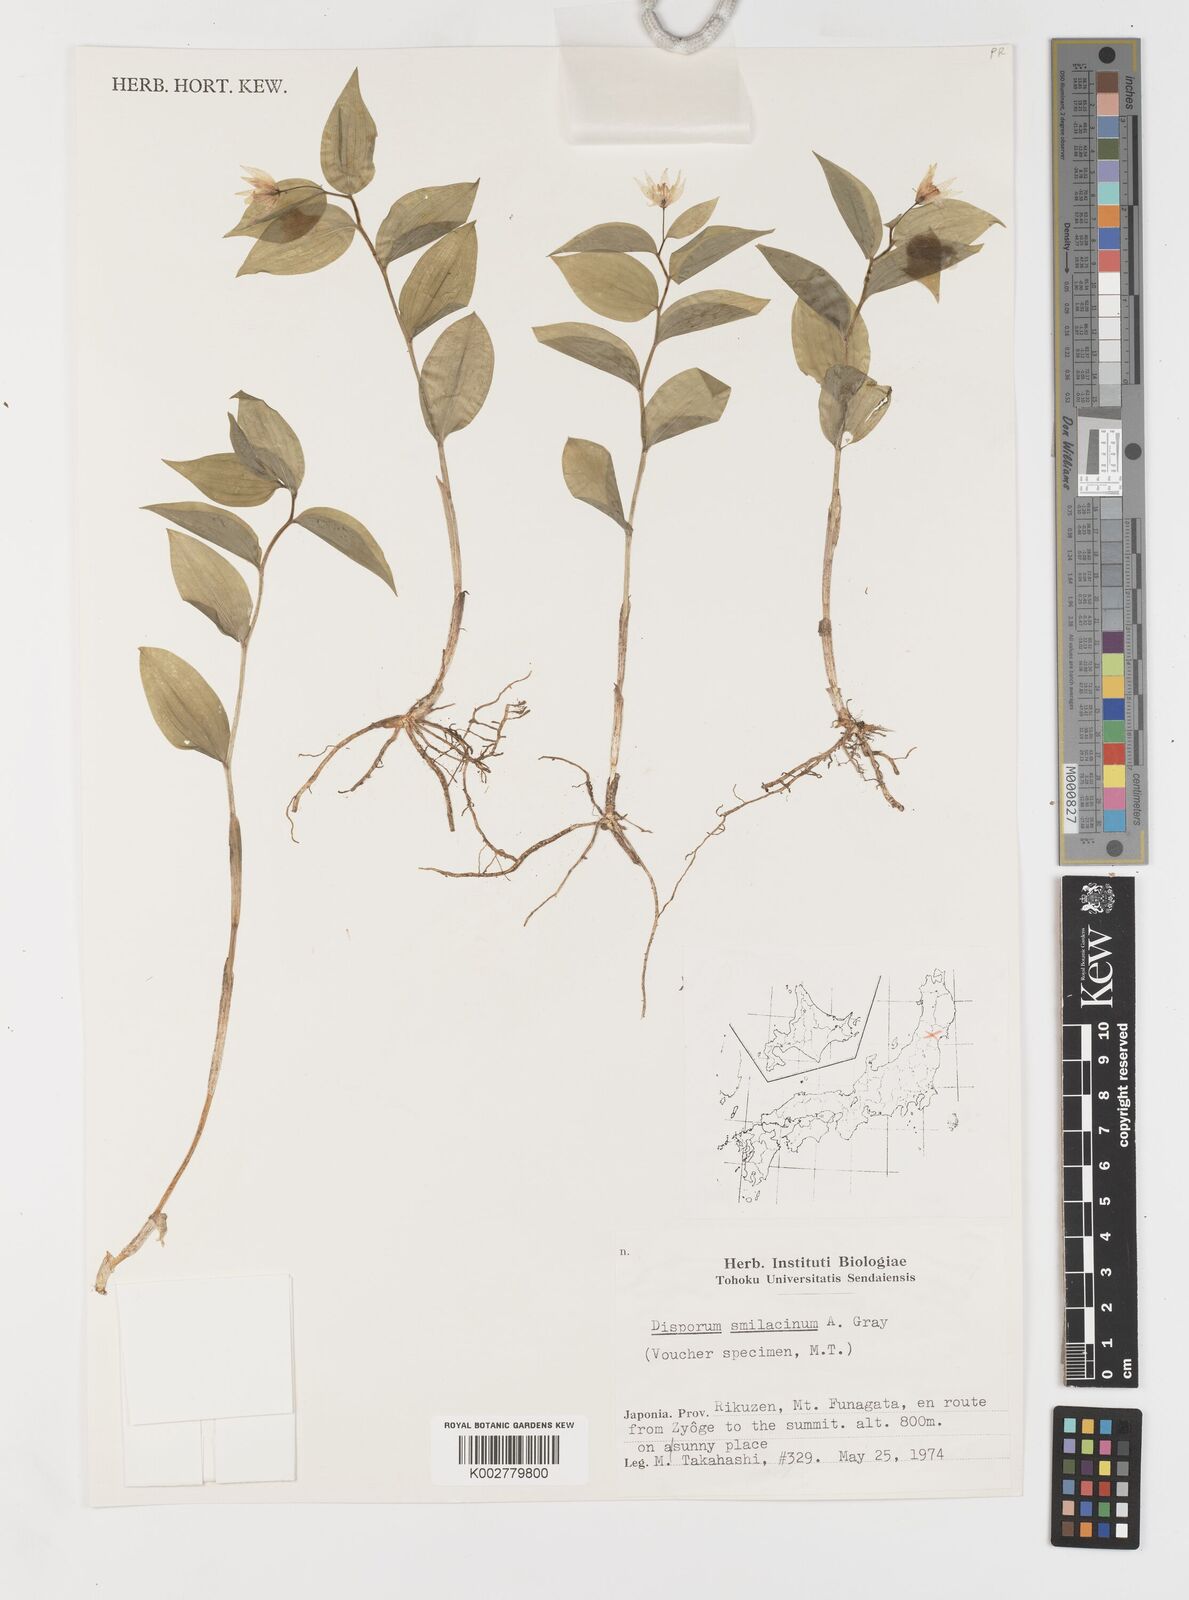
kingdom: Plantae
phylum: Tracheophyta
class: Liliopsida
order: Liliales
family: Colchicaceae
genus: Disporum
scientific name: Disporum smilacinum
